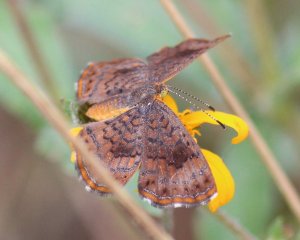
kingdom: Animalia
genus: Calephelis
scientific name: Calephelis perditalis
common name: Rounded Metalmark
